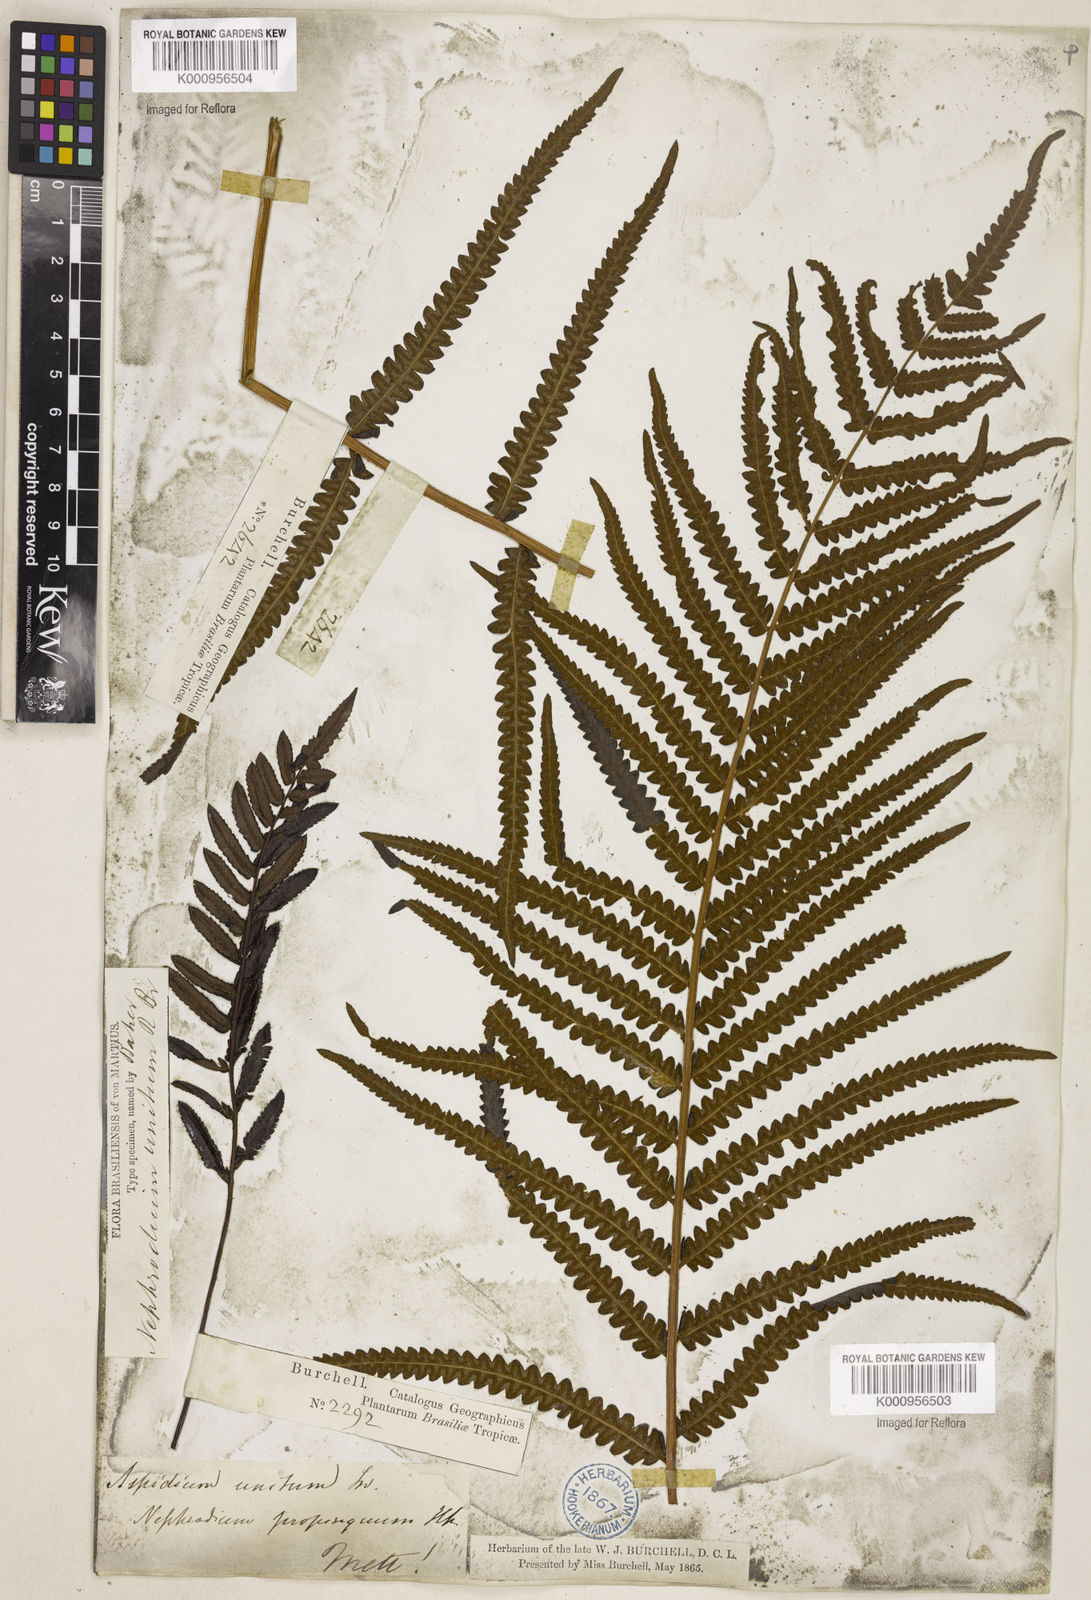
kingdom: Plantae
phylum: Tracheophyta
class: Polypodiopsida
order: Polypodiales
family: Thelypteridaceae
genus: Cyclosorus
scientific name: Cyclosorus interruptus
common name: Neke fern
